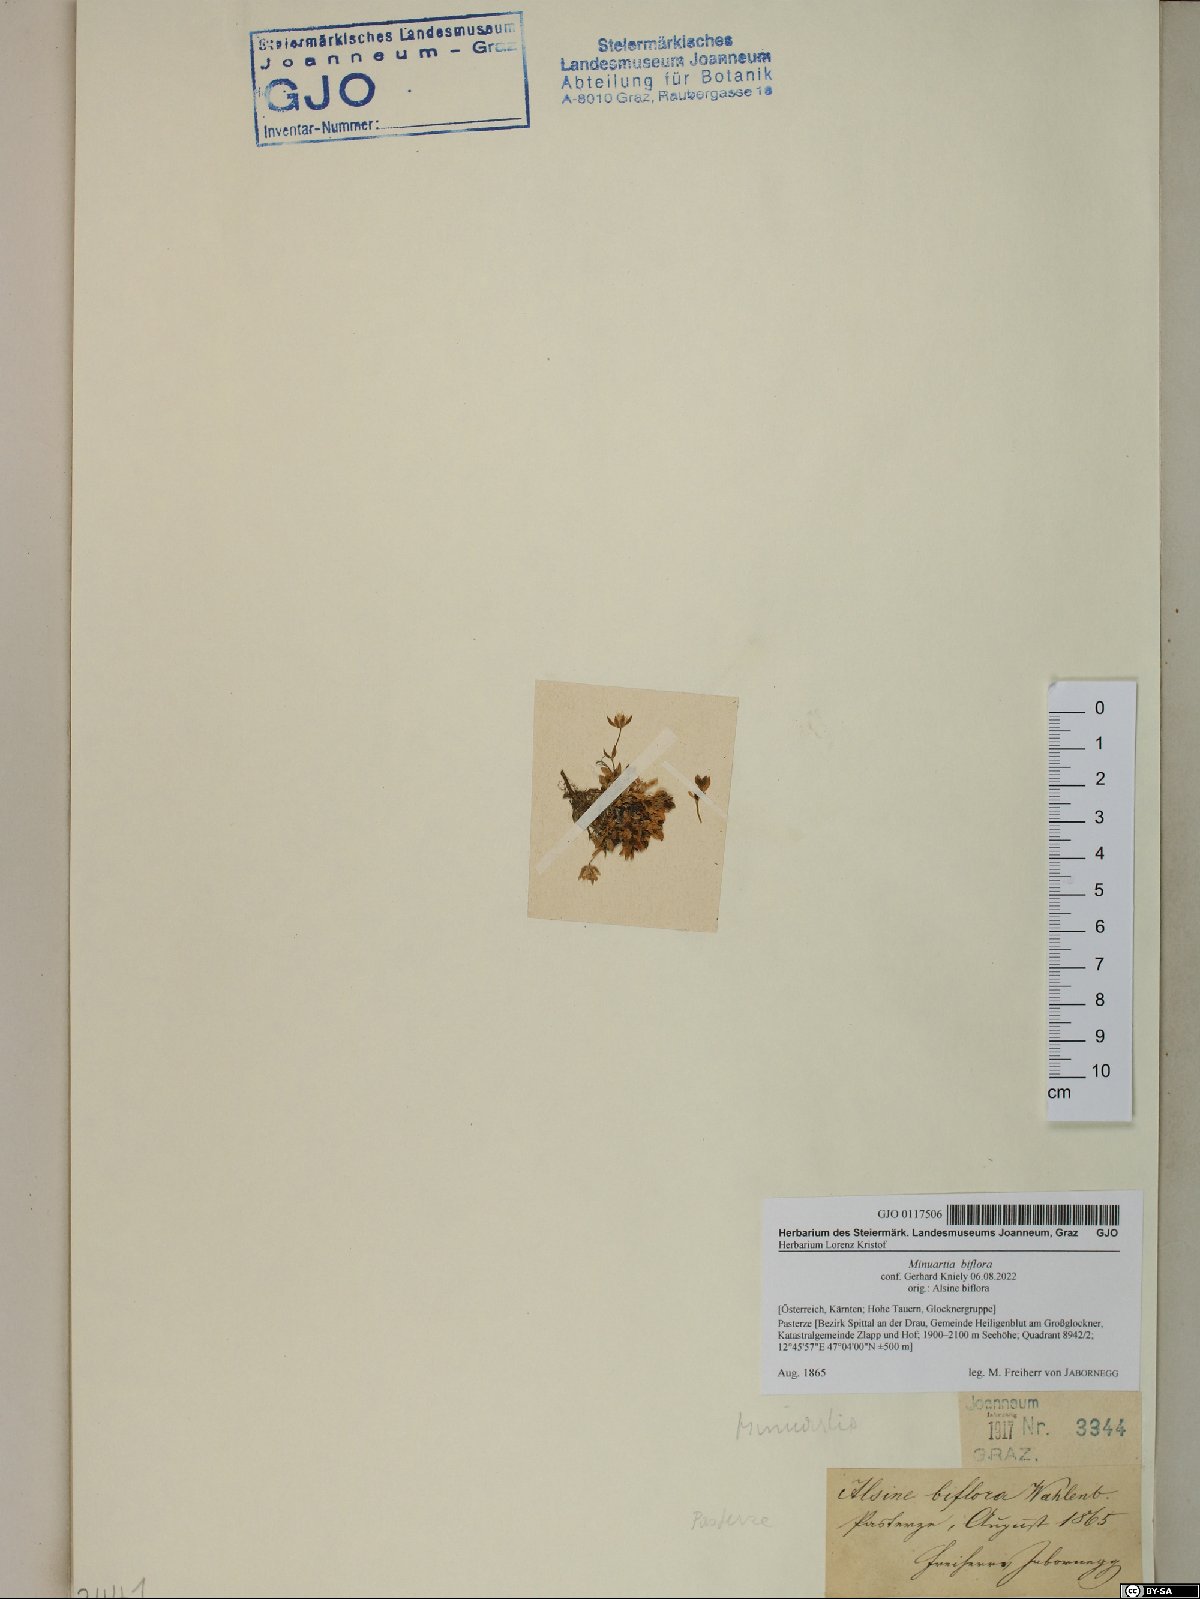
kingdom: Plantae
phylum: Tracheophyta
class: Magnoliopsida
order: Caryophyllales
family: Caryophyllaceae
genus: Cherleria
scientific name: Cherleria biflora
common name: Mountain sandwort
